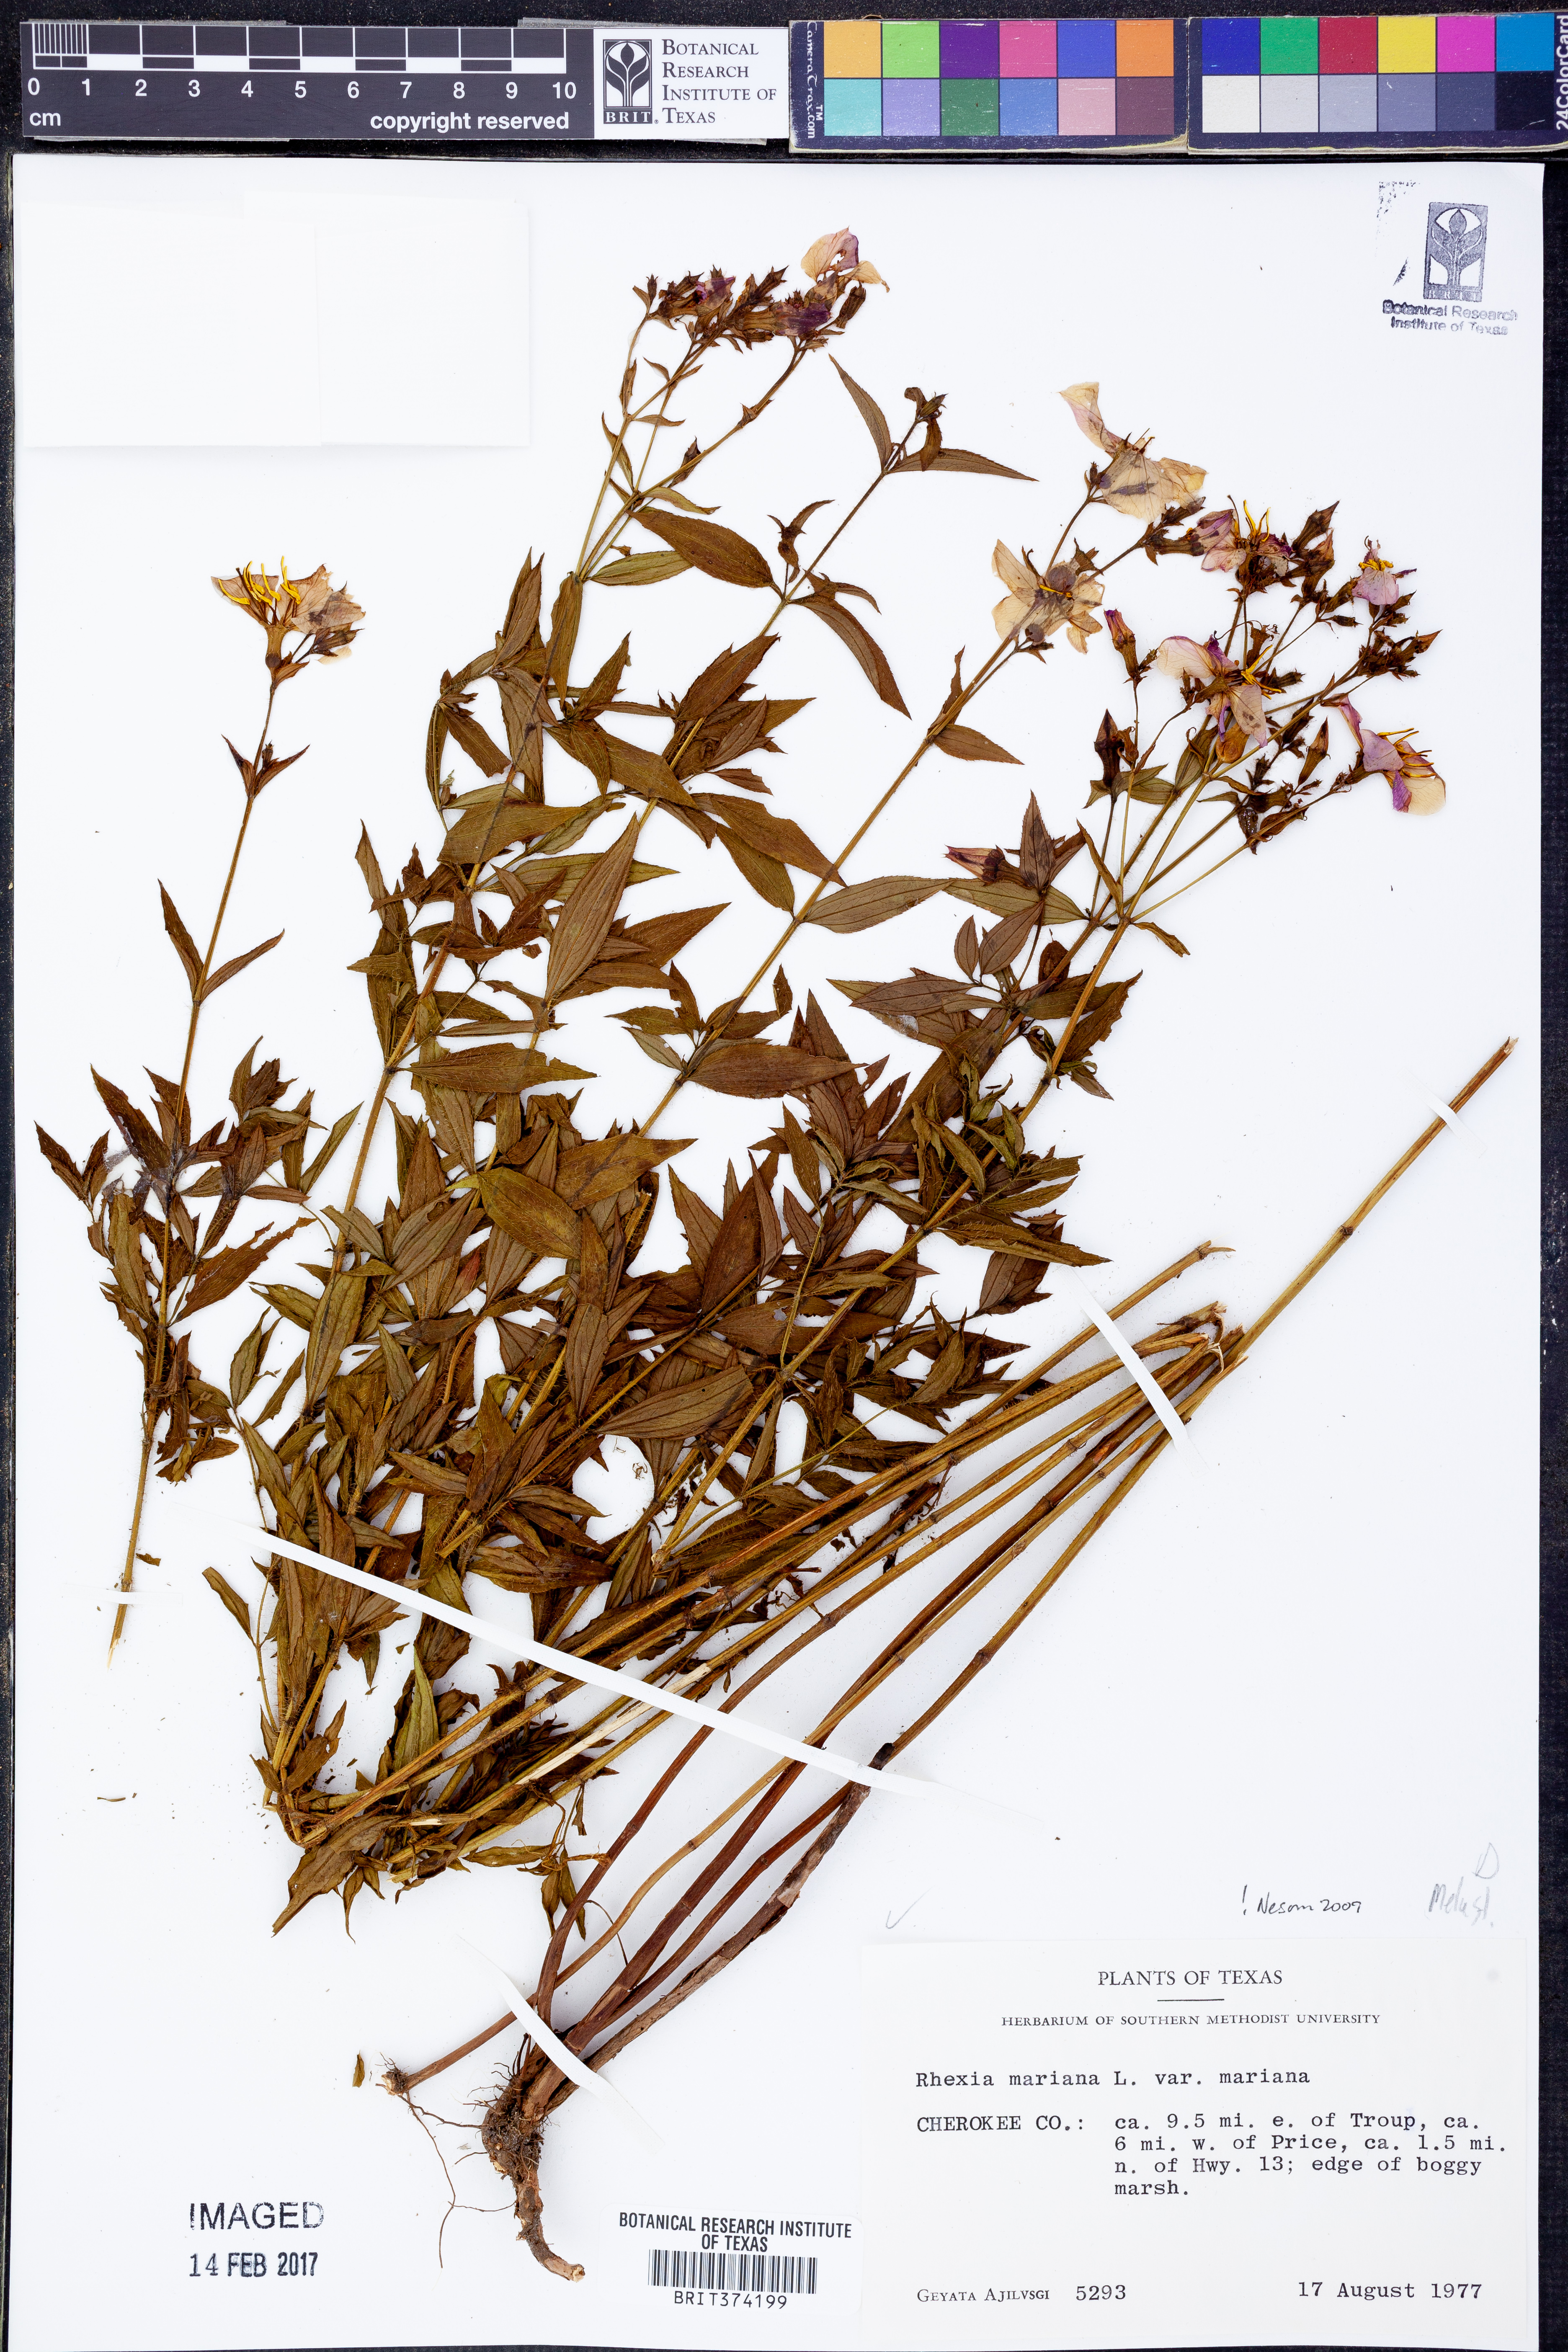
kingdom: Plantae
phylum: Tracheophyta
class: Magnoliopsida
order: Myrtales
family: Melastomataceae
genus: Rhexia
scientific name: Rhexia mariana
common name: Dull meadow-pitcher
